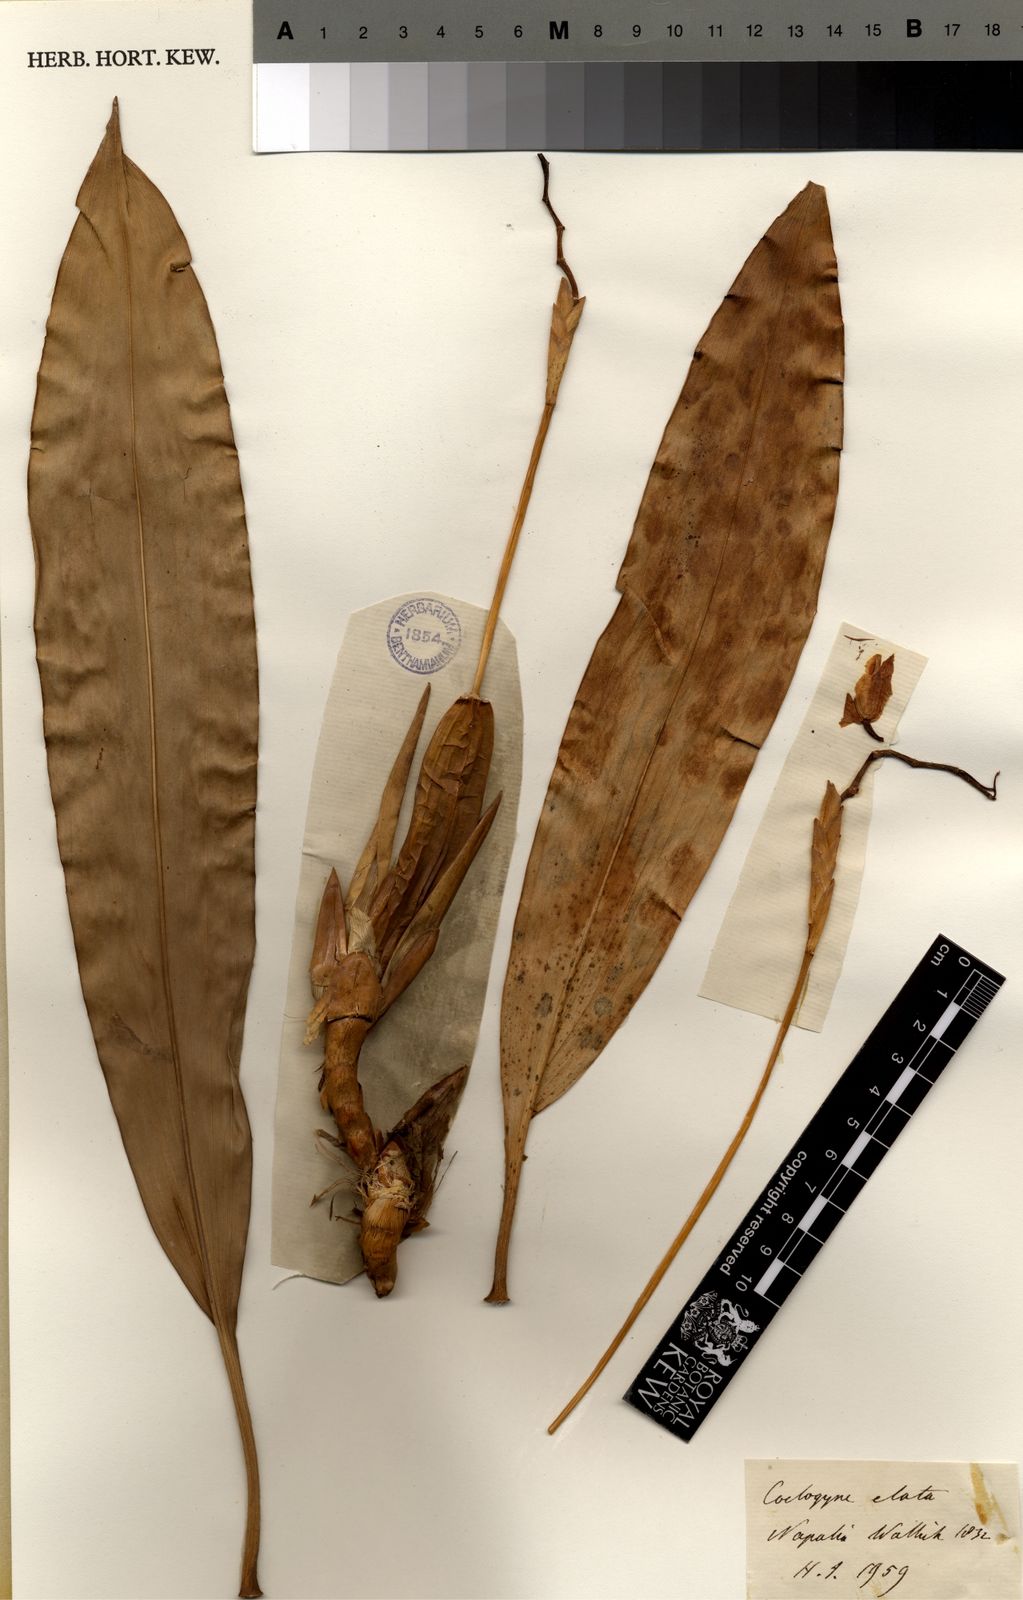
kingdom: Plantae
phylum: Tracheophyta
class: Liliopsida
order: Asparagales
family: Orchidaceae
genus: Coelogyne
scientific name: Coelogyne stricta
